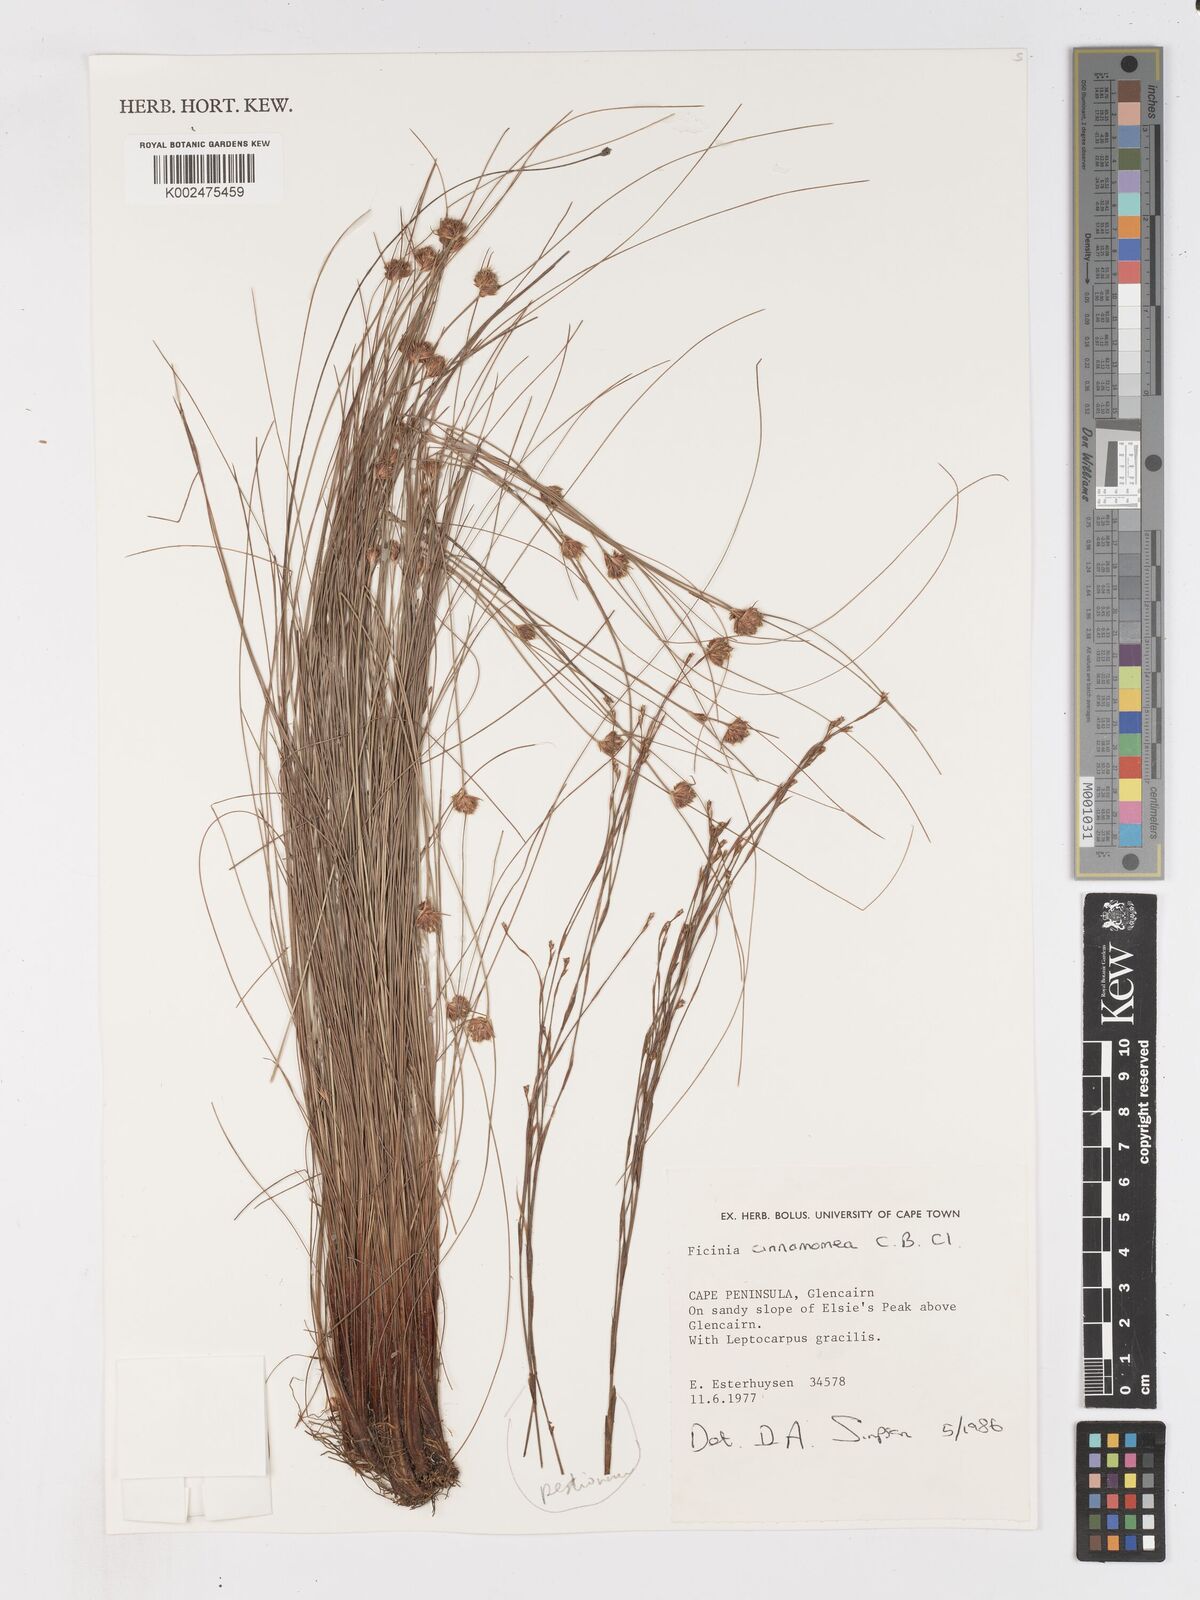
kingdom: Plantae
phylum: Tracheophyta
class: Liliopsida
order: Poales
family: Cyperaceae
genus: Ficinia
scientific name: Ficinia cinnamomea
